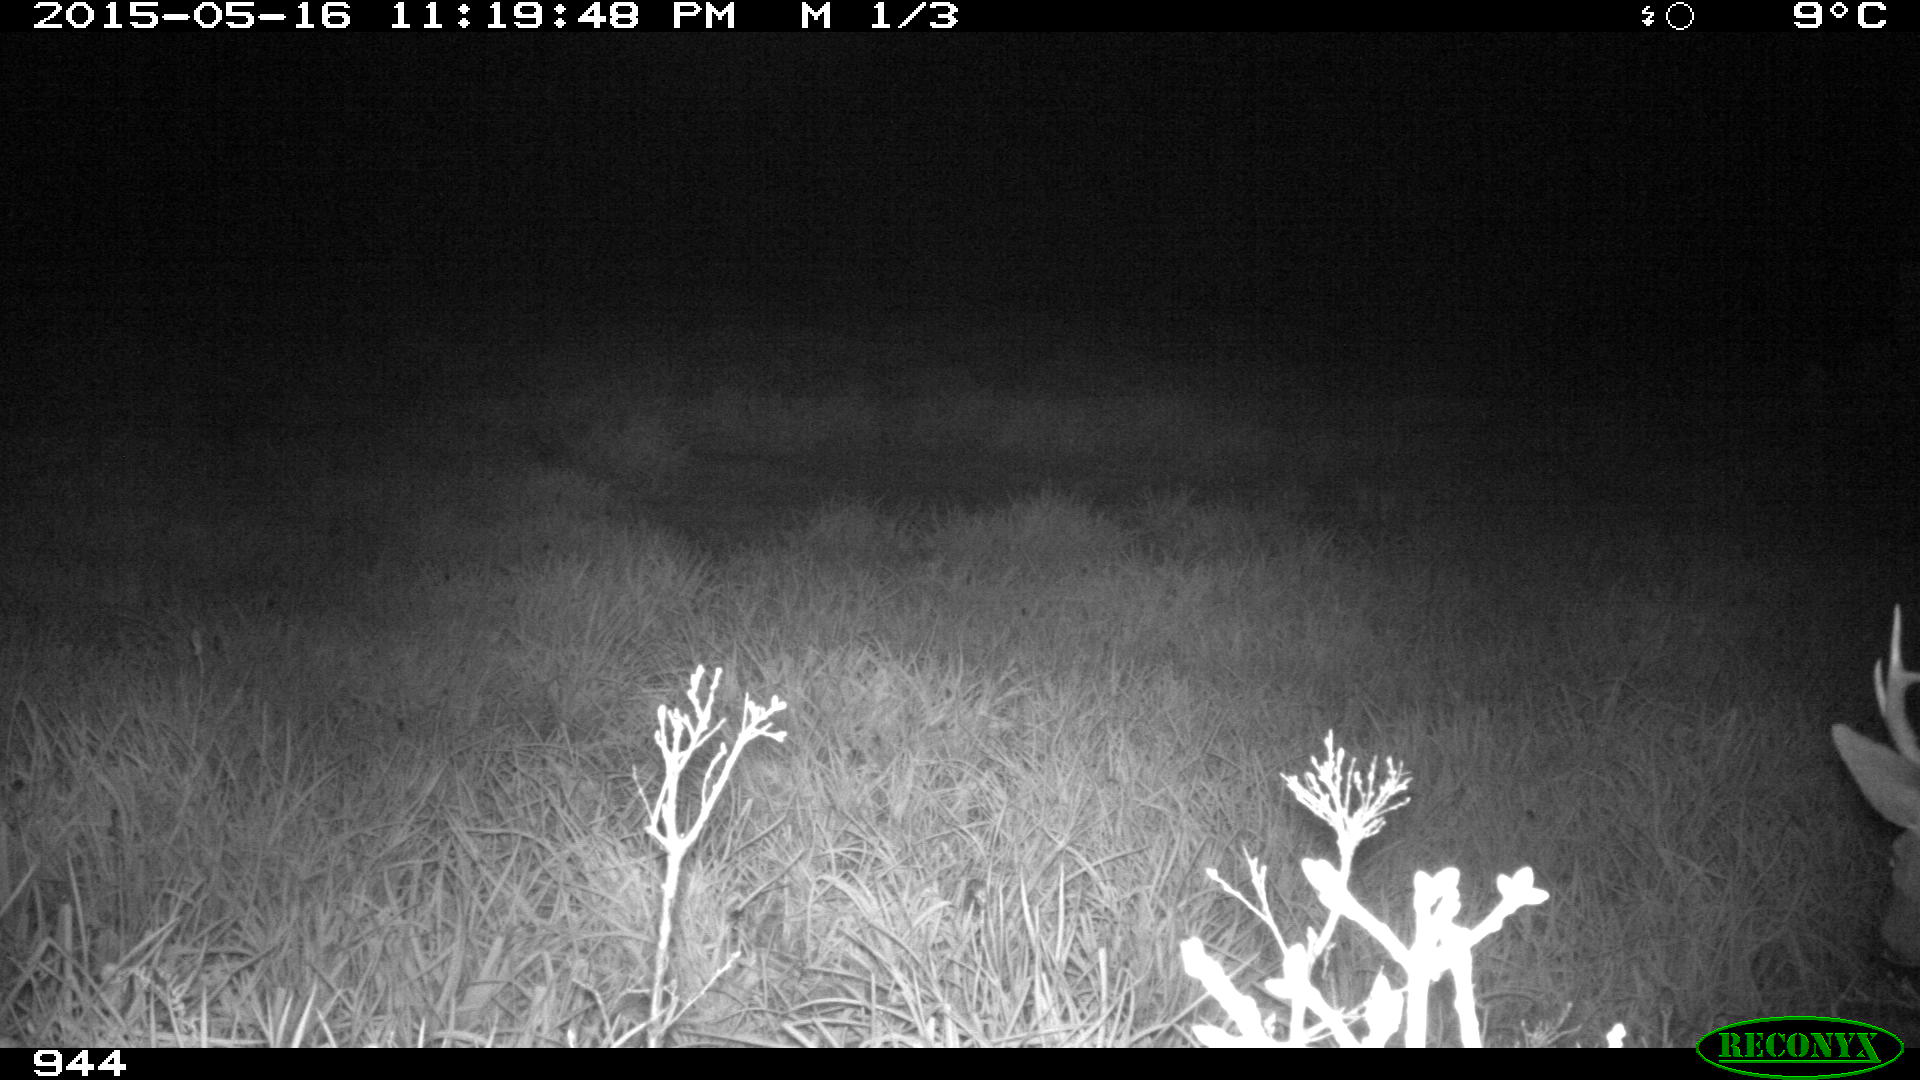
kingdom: Animalia
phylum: Chordata
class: Mammalia
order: Artiodactyla
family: Cervidae
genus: Capreolus
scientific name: Capreolus capreolus
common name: Western roe deer
